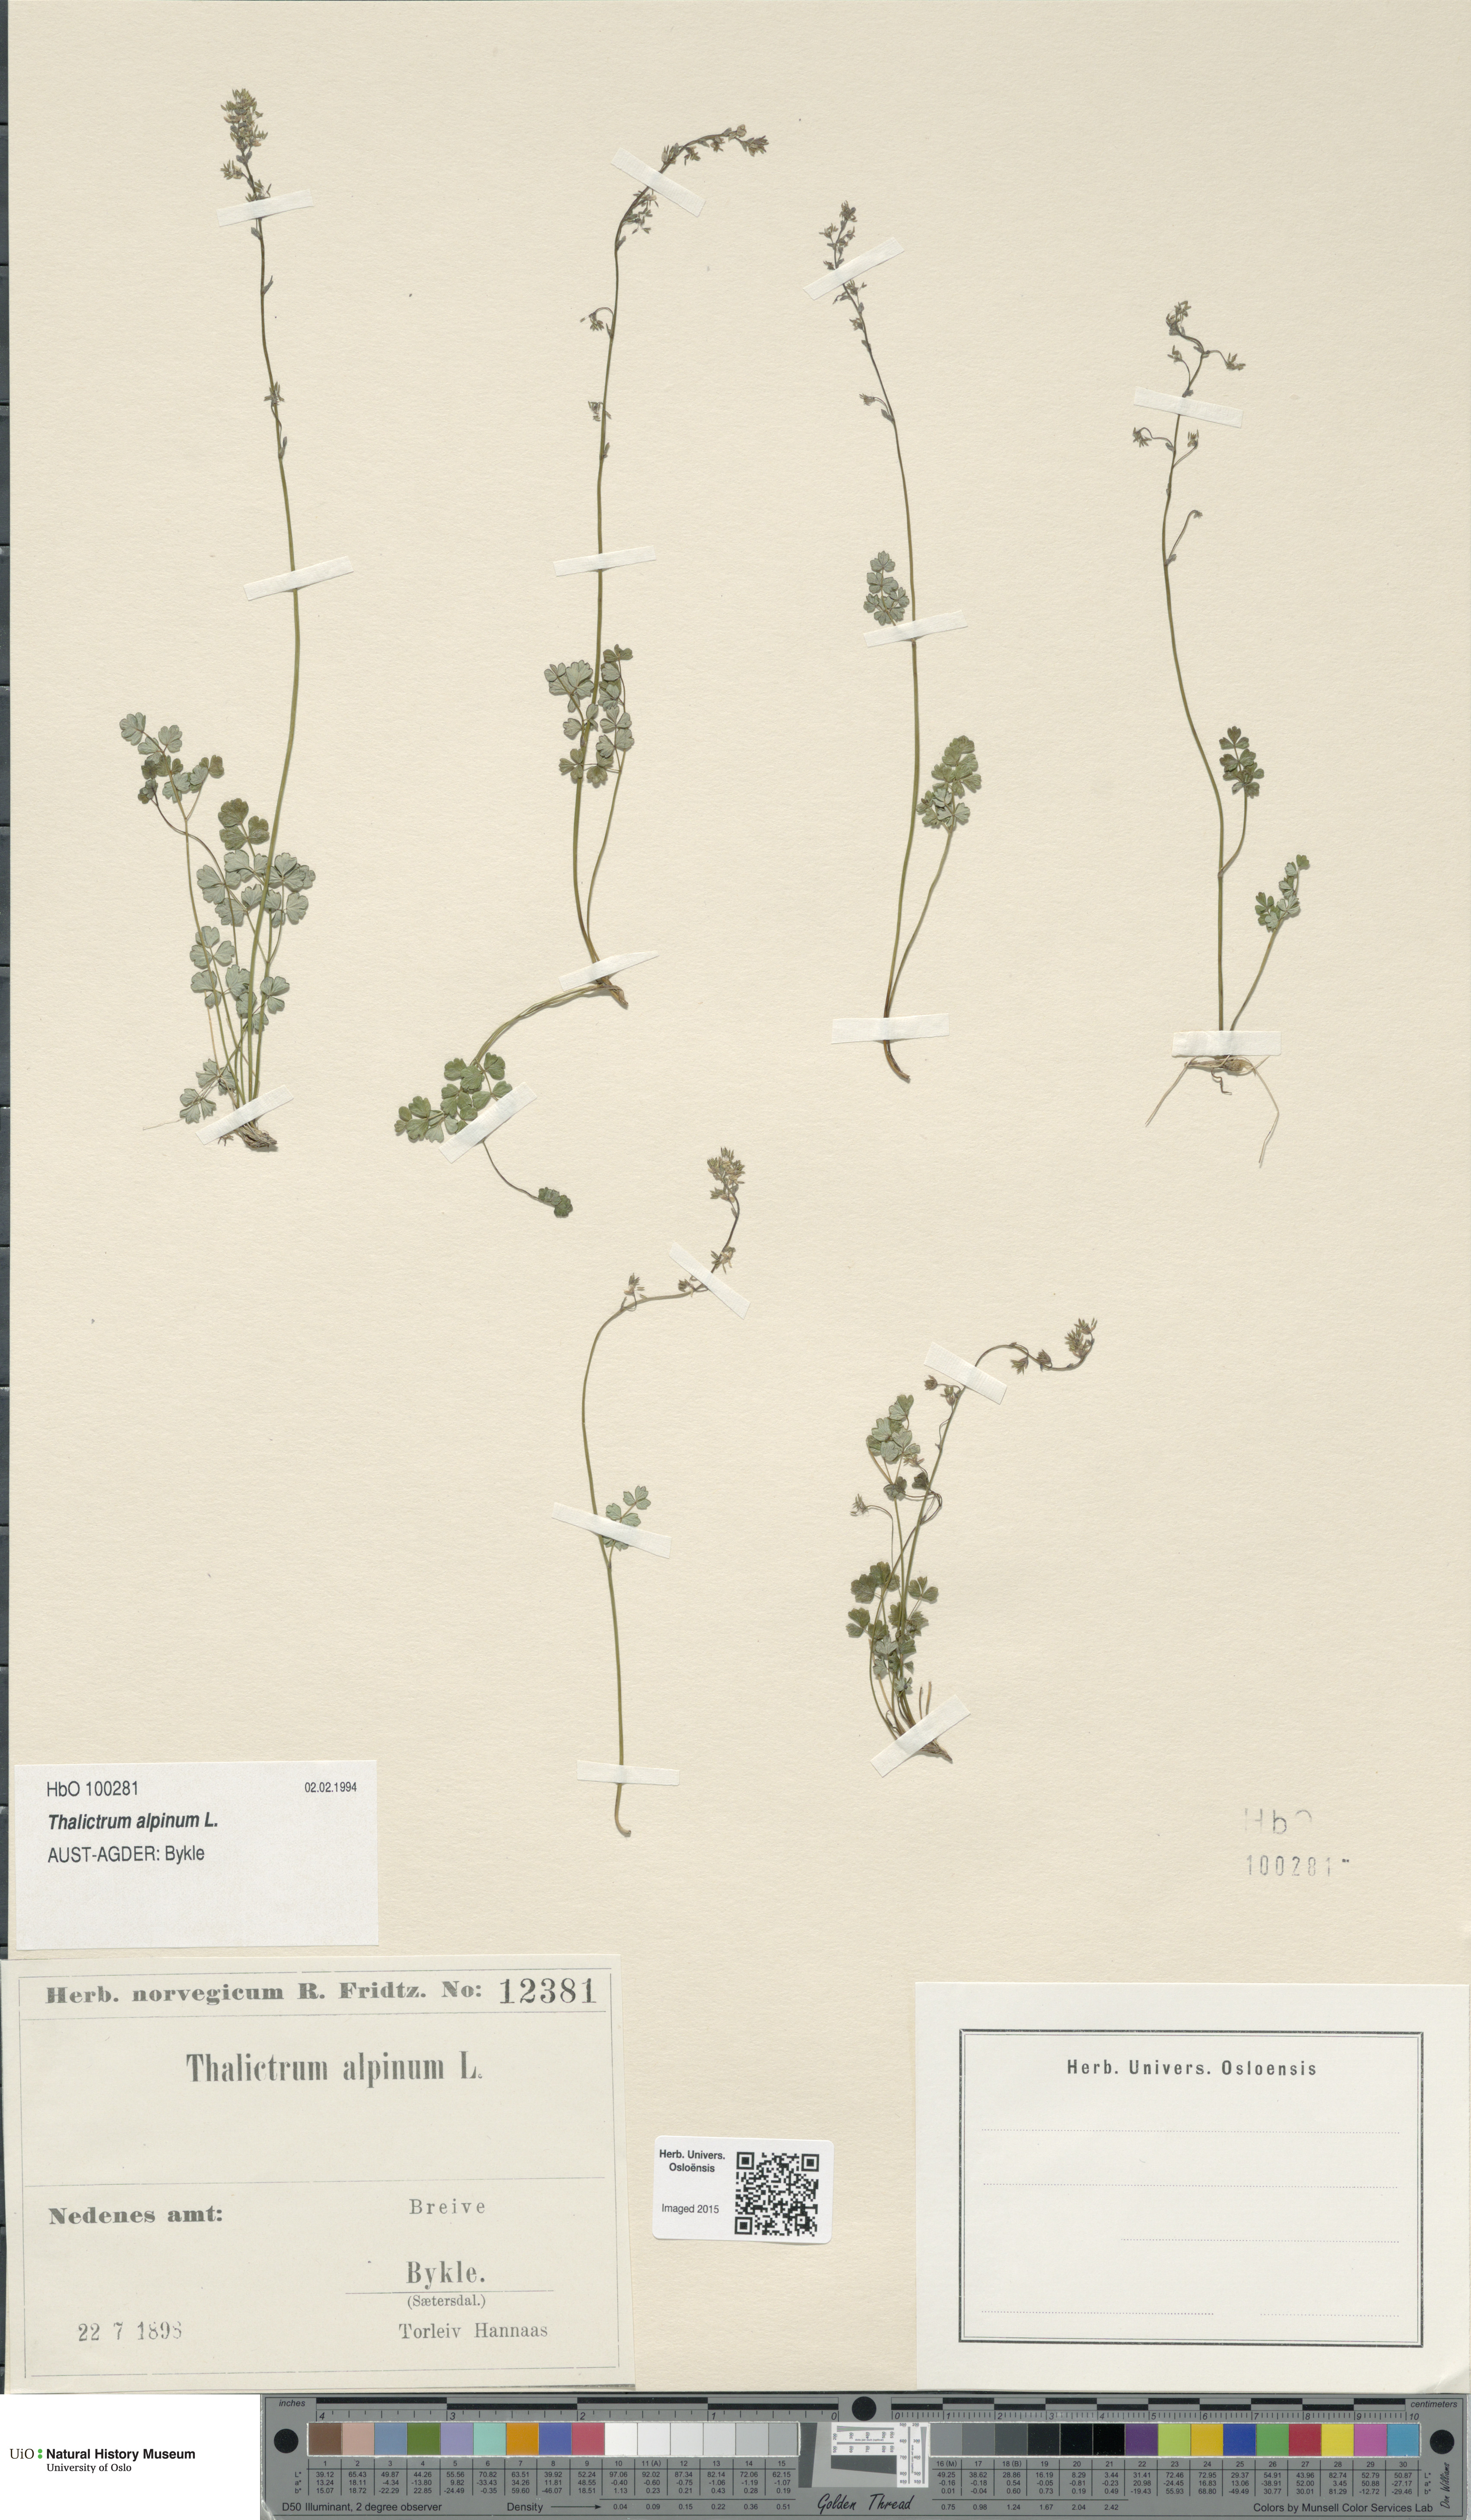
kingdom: Plantae
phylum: Tracheophyta
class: Magnoliopsida
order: Ranunculales
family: Ranunculaceae
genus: Thalictrum
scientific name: Thalictrum alpinum
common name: Alpine meadow-rue
